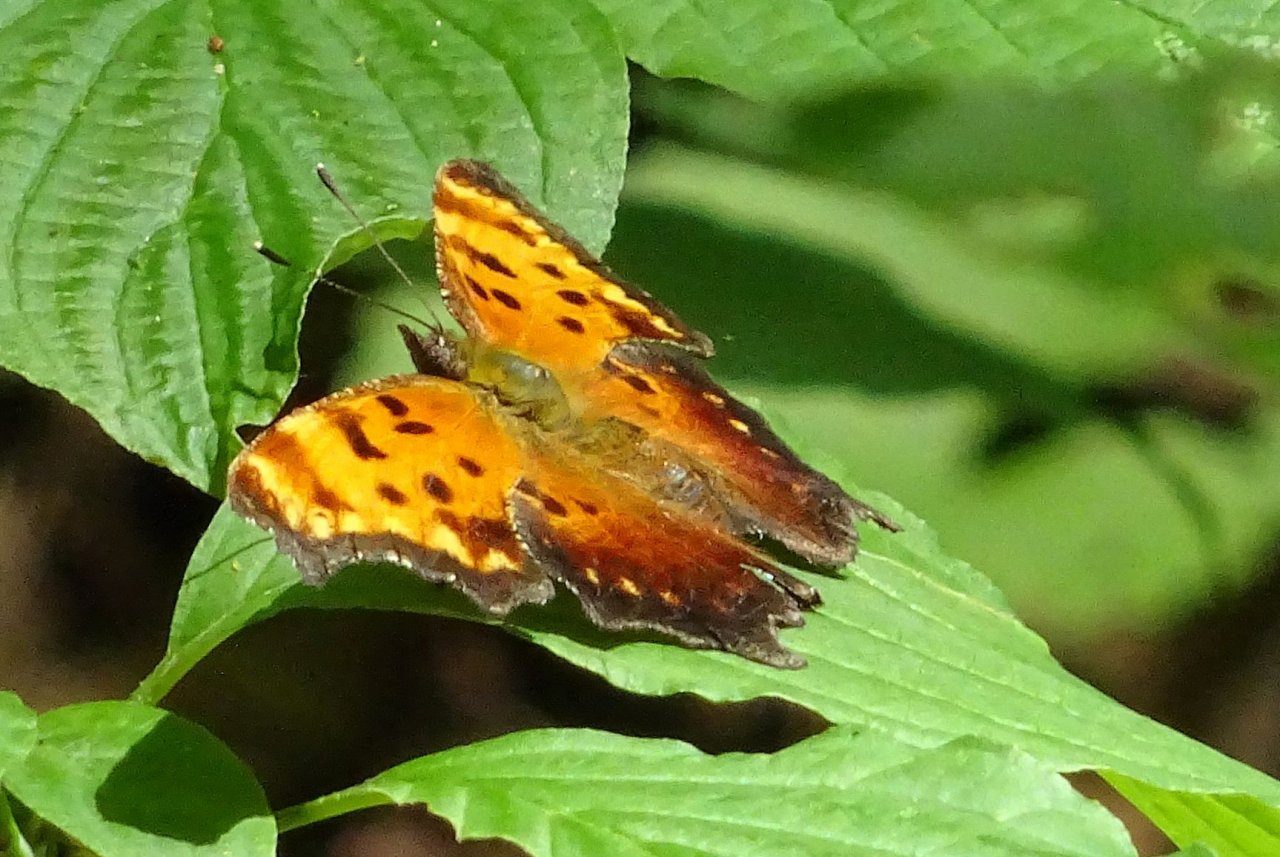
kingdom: Animalia
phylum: Arthropoda
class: Insecta
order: Lepidoptera
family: Nymphalidae
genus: Polygonia
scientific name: Polygonia progne
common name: Gray Comma
